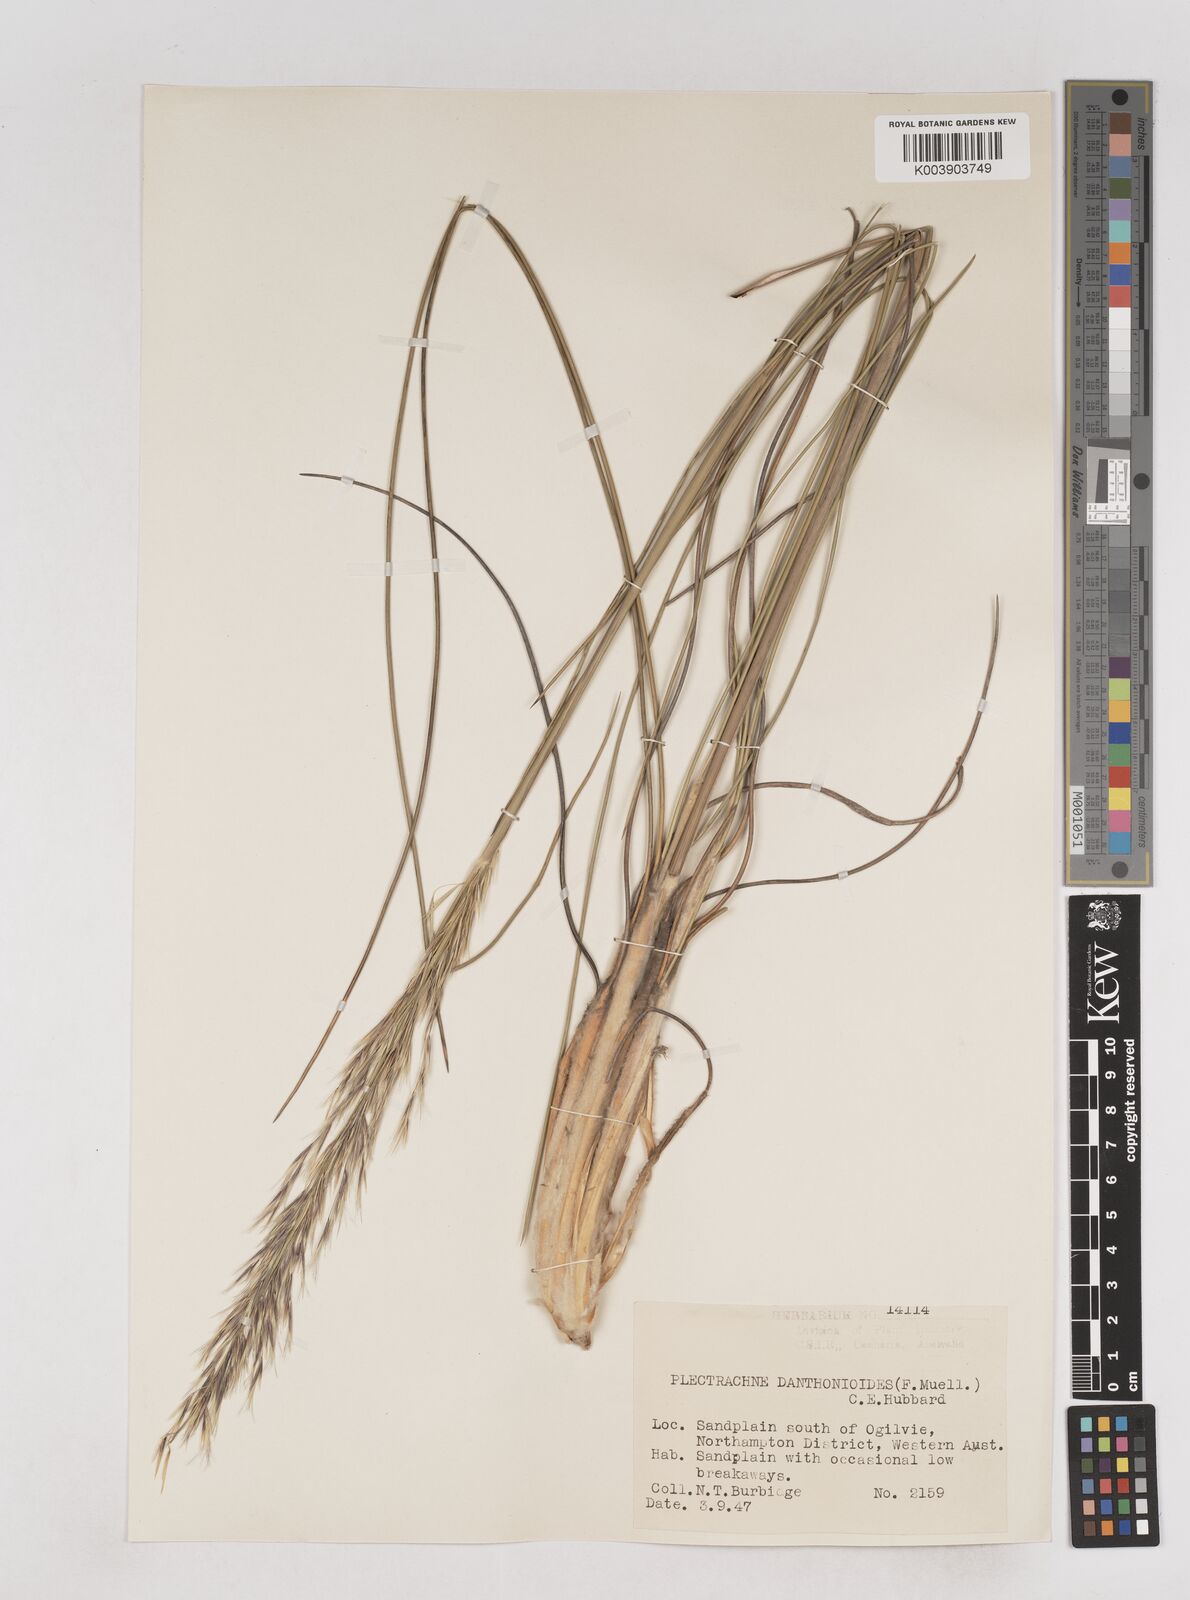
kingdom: Plantae
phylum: Tracheophyta
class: Liliopsida
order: Poales
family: Poaceae
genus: Triodia
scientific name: Triodia danthonioides
